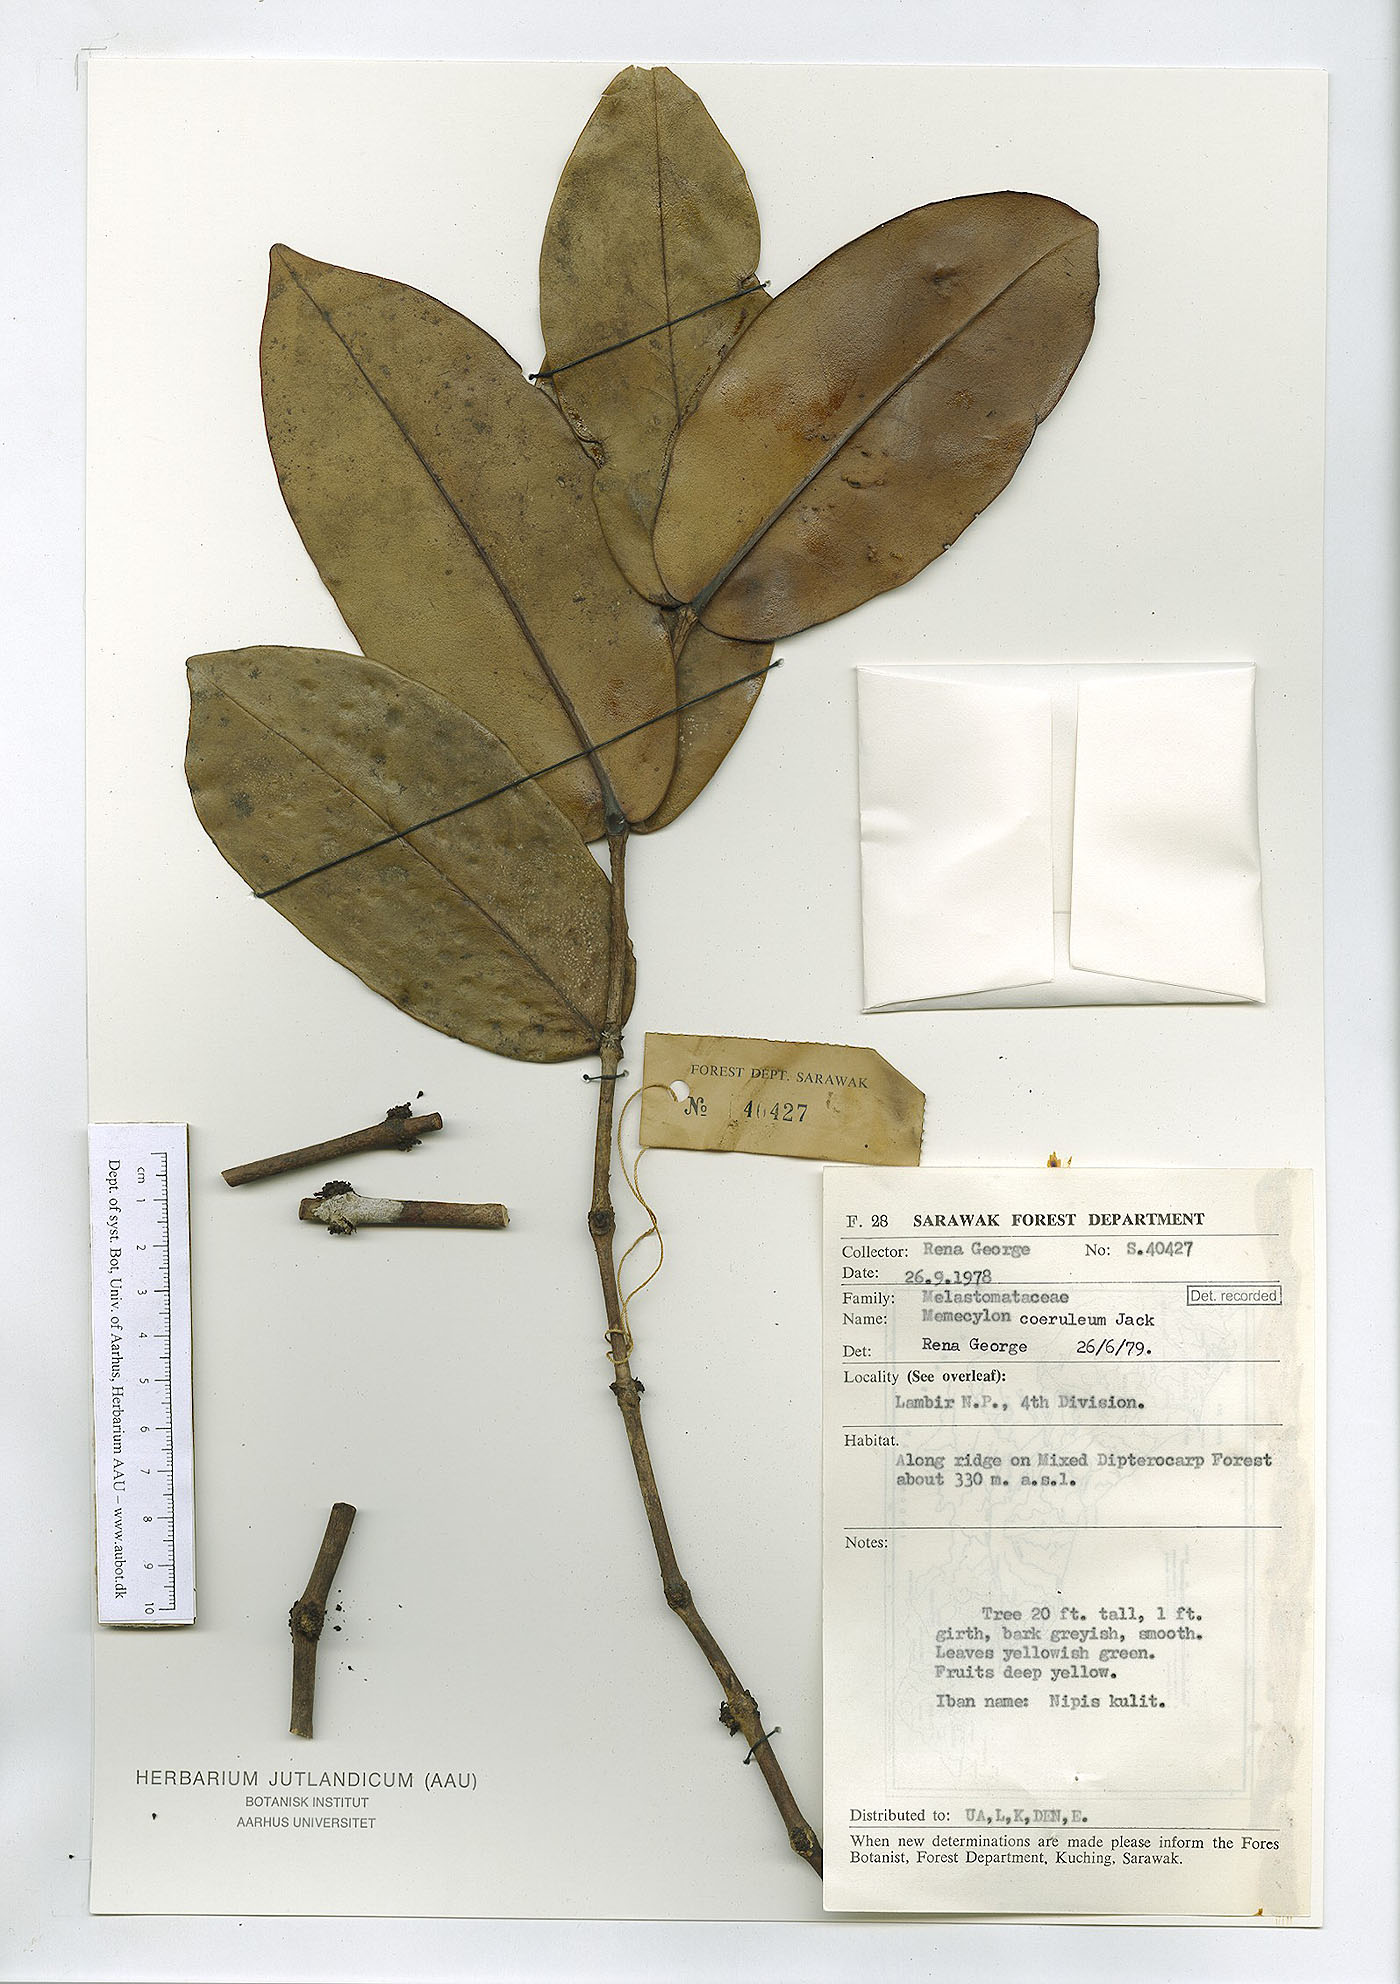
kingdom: Plantae
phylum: Tracheophyta
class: Magnoliopsida
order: Myrtales
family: Melastomataceae
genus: Memecylon
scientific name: Memecylon coeruleum
